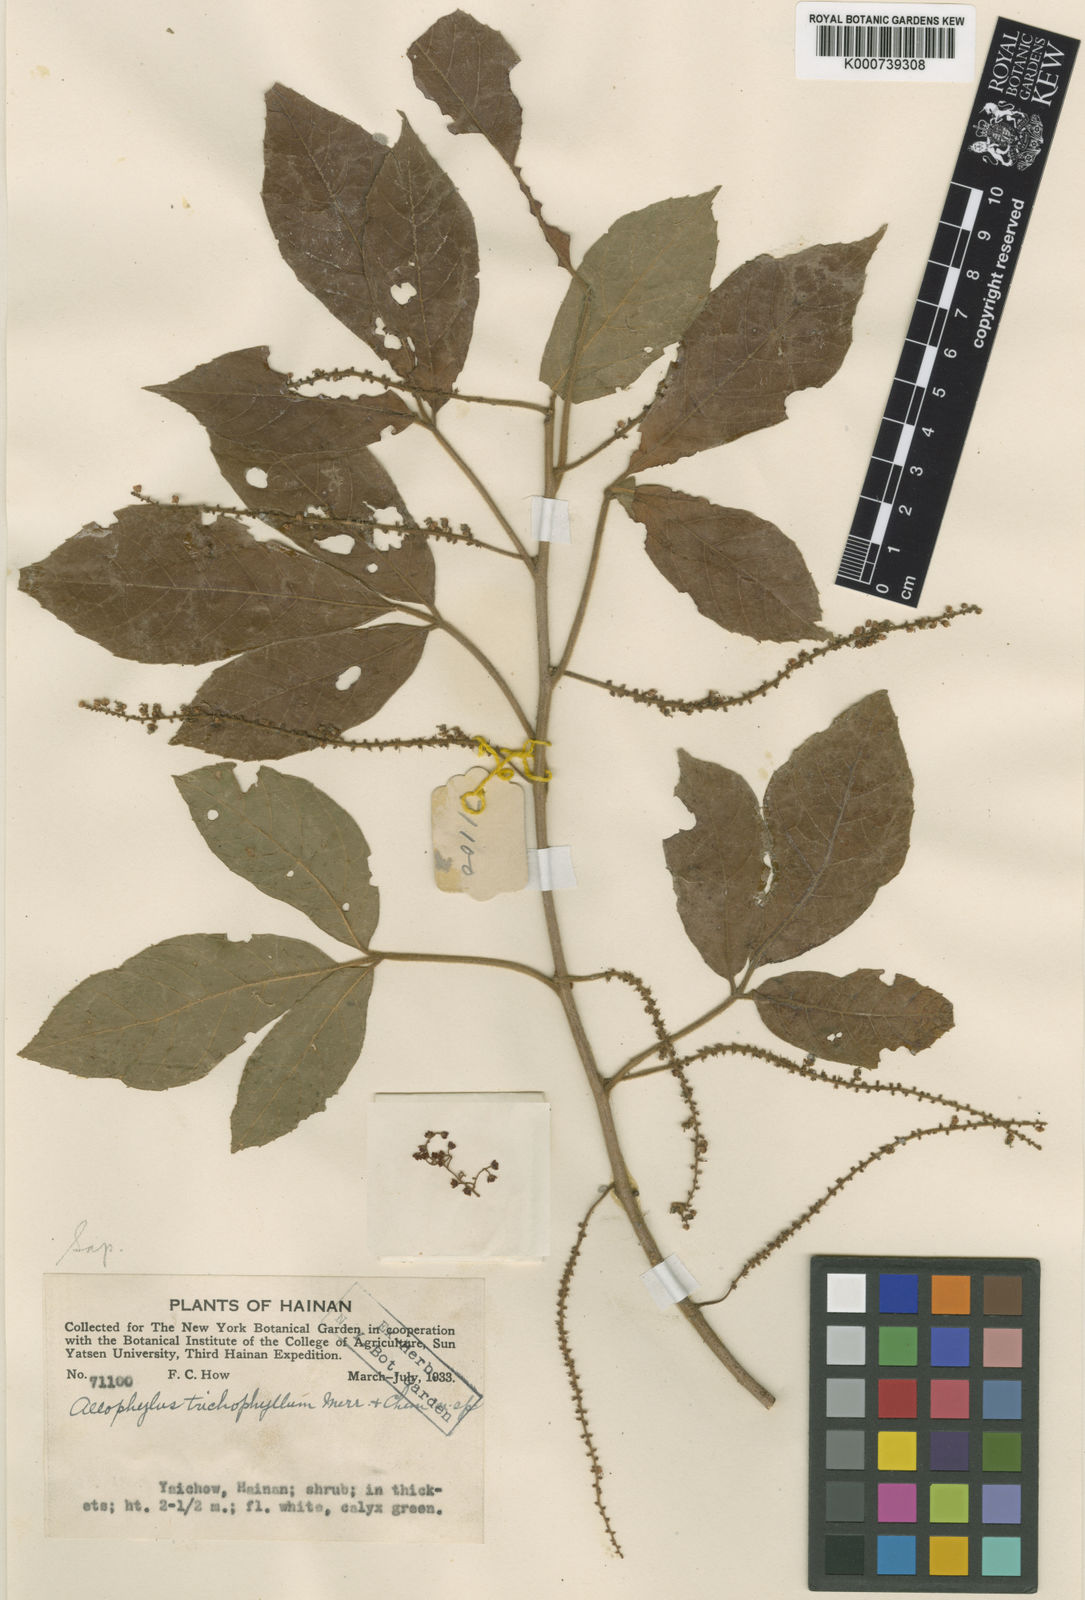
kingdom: Plantae
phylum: Tracheophyta
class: Magnoliopsida
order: Sapindales
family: Sapindaceae
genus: Allophylus
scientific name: Allophylus trichophyllus
